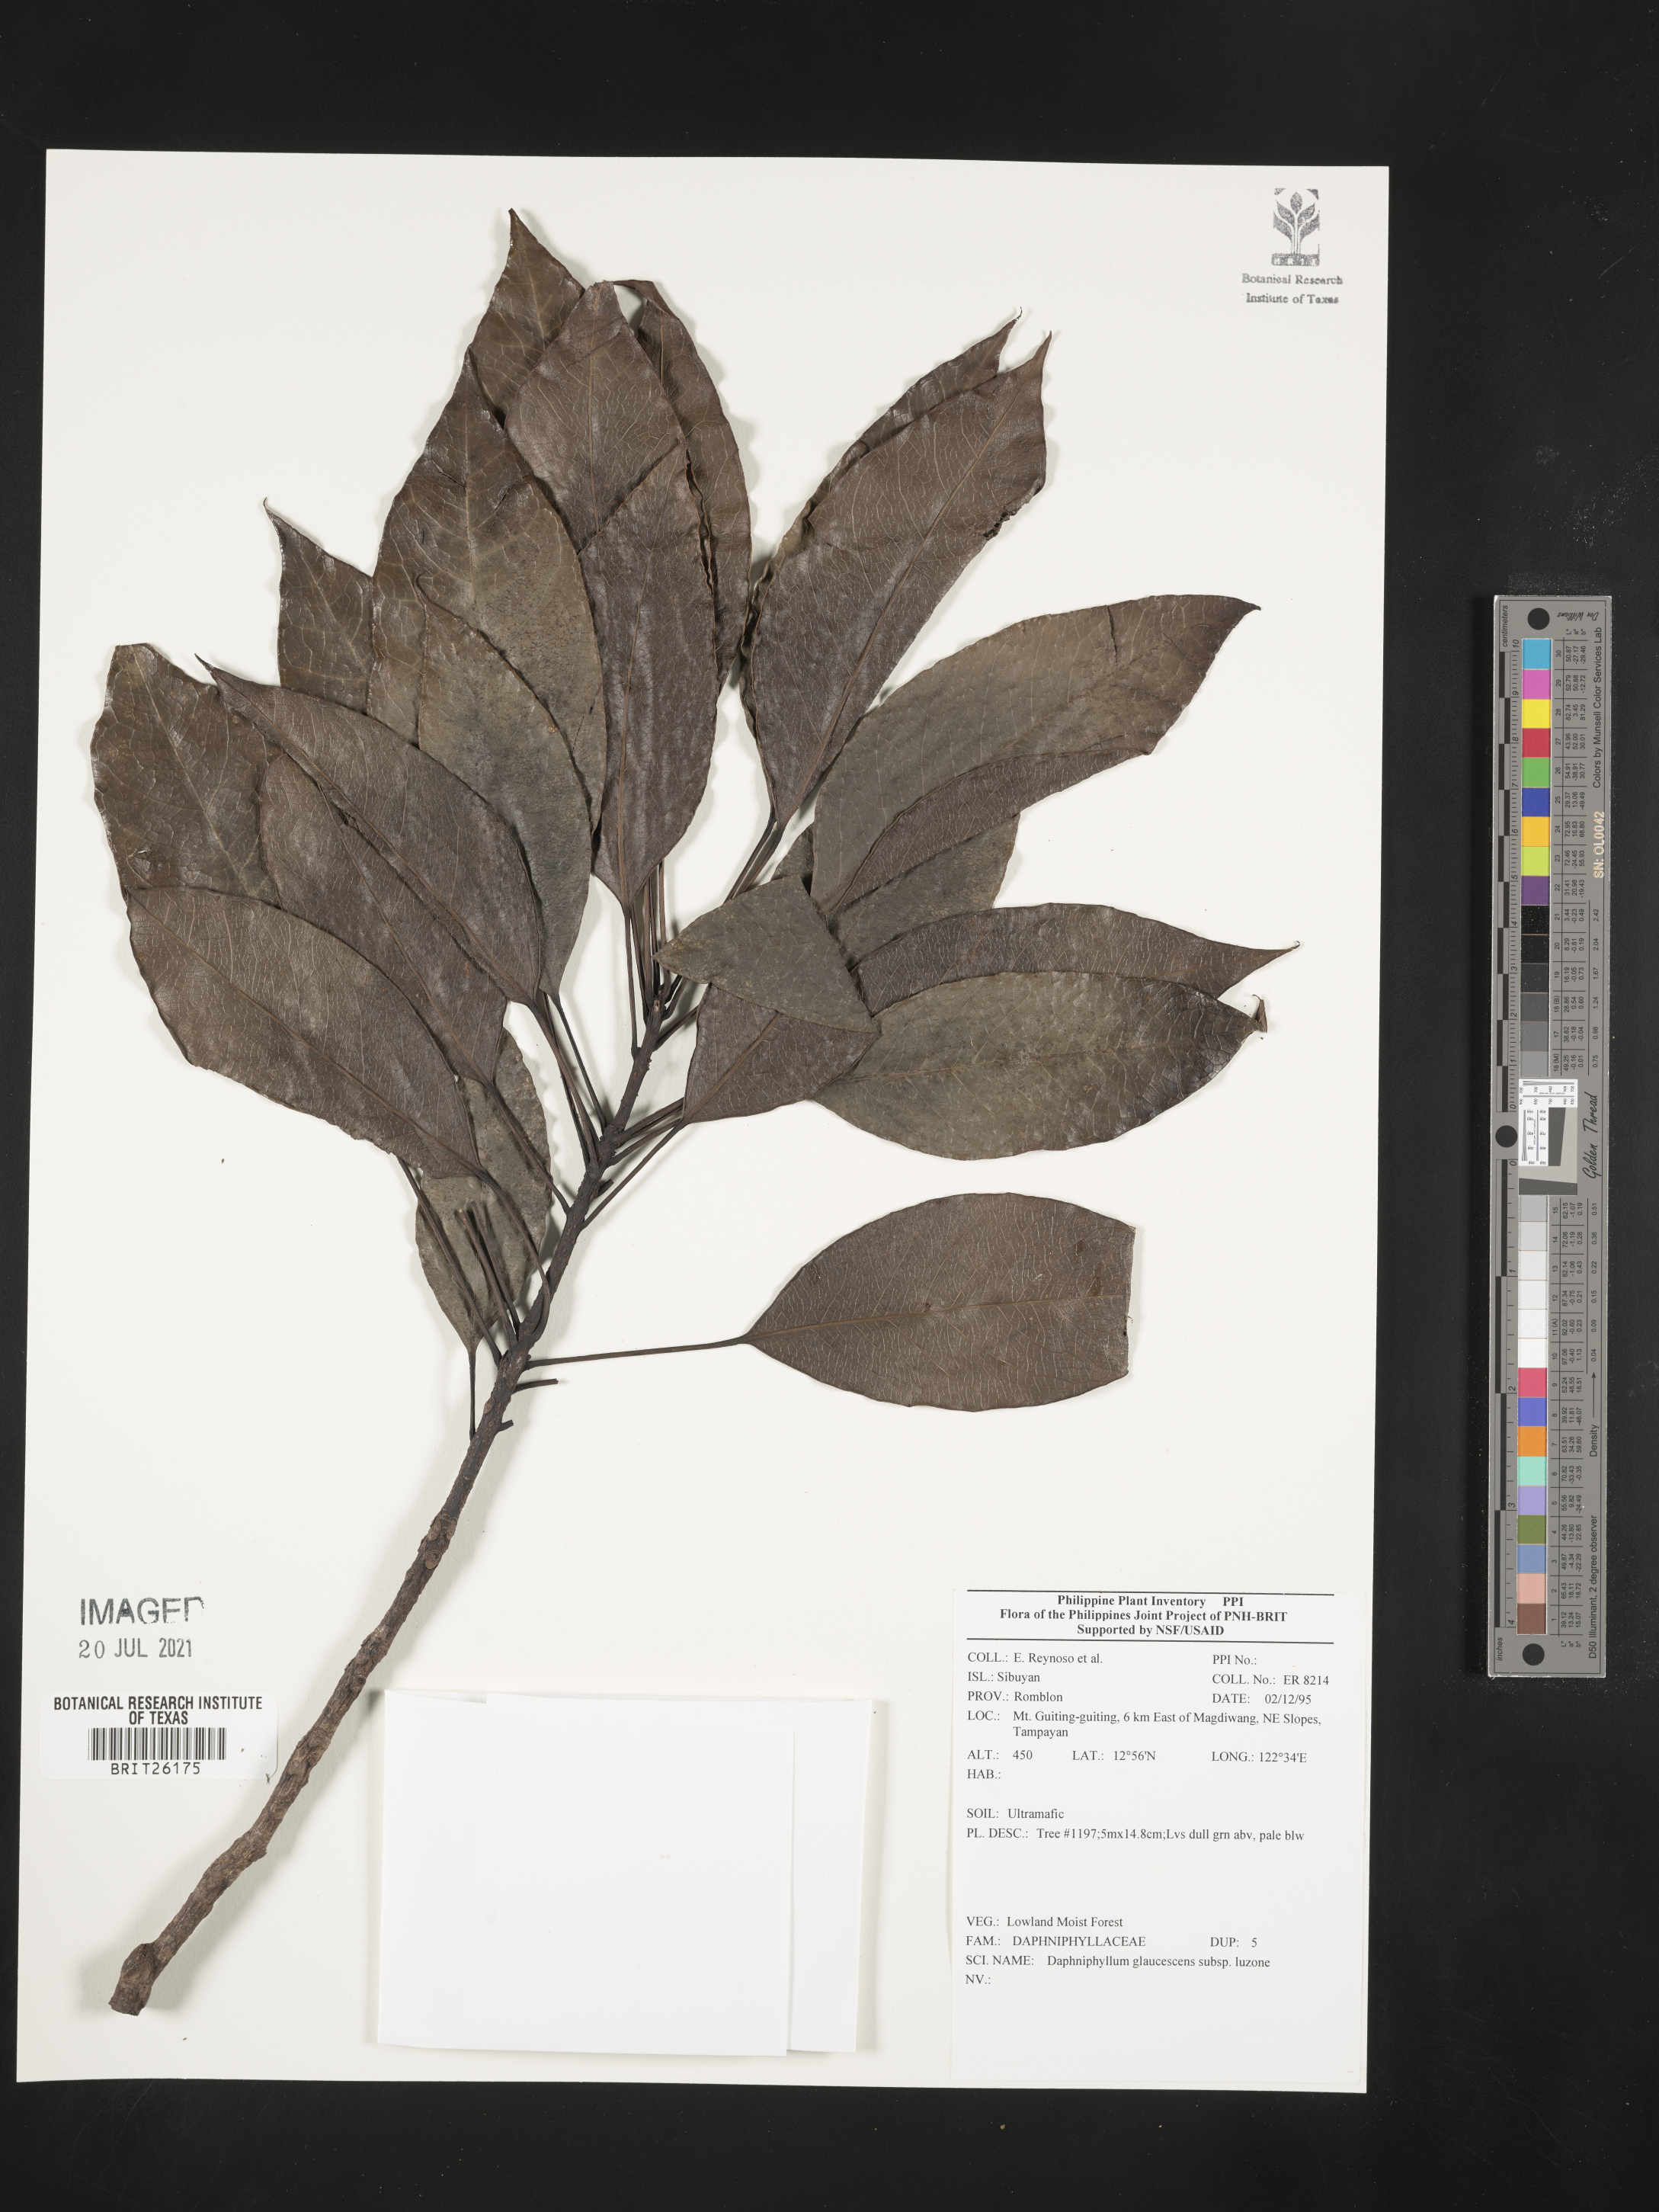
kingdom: Plantae
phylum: Tracheophyta
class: Magnoliopsida
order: Saxifragales
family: Daphniphyllaceae
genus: Daphniphyllum
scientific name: Daphniphyllum glaucescens
